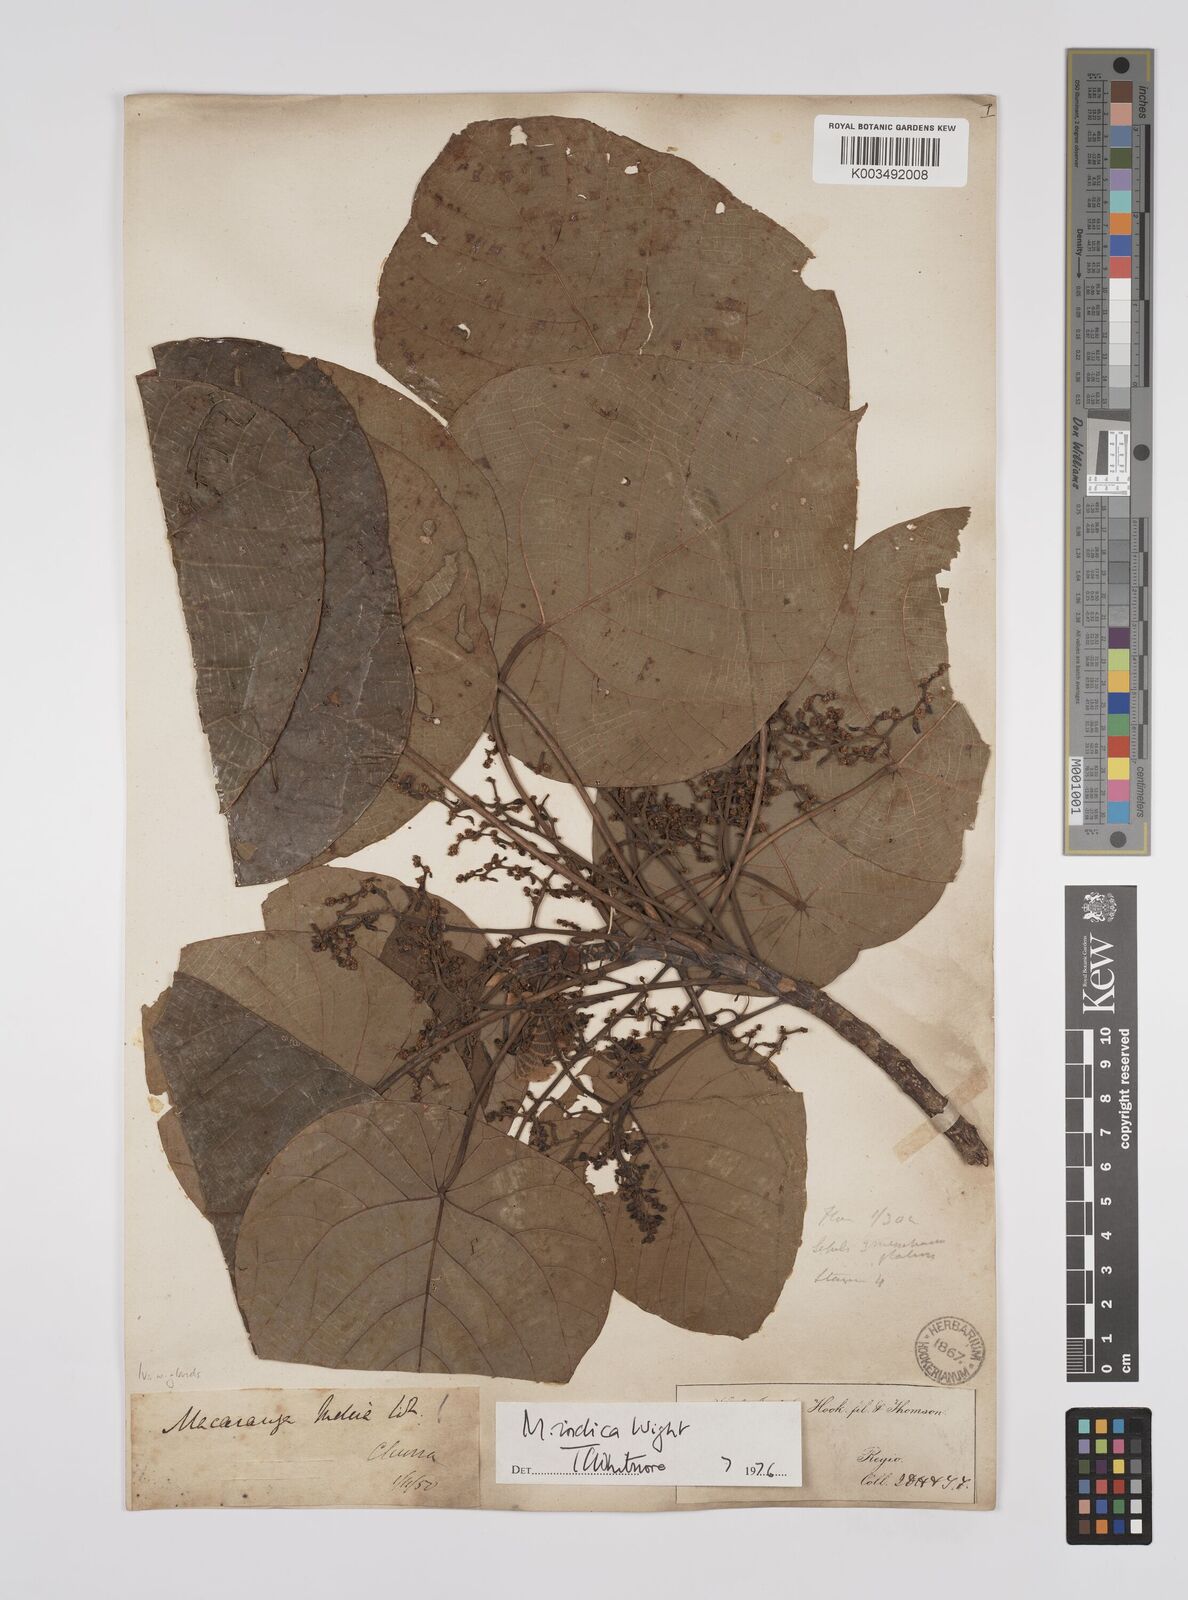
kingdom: Plantae
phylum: Tracheophyta
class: Magnoliopsida
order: Malpighiales
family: Euphorbiaceae
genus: Macaranga
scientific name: Macaranga indica
